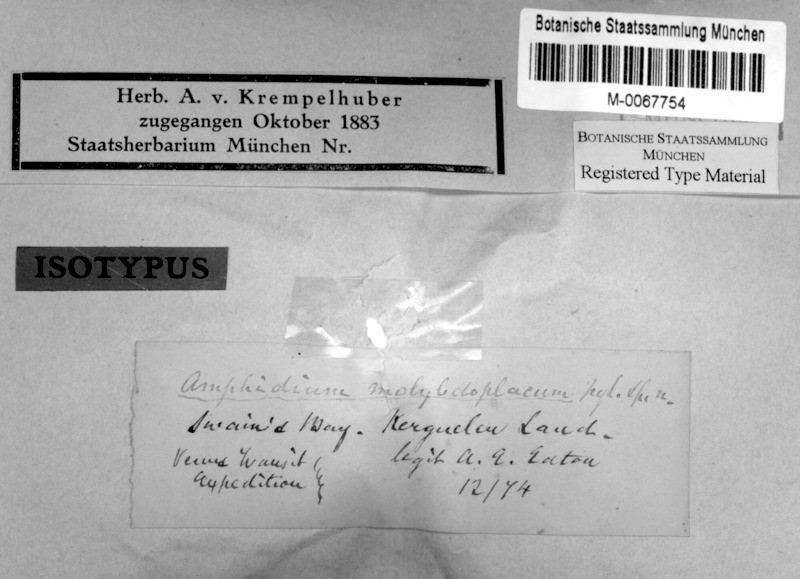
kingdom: Fungi
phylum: Ascomycota
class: Lecanoromycetes
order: Peltigerales
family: Koerberiaceae
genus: Steinera
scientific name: Steinera molybdoplaca
